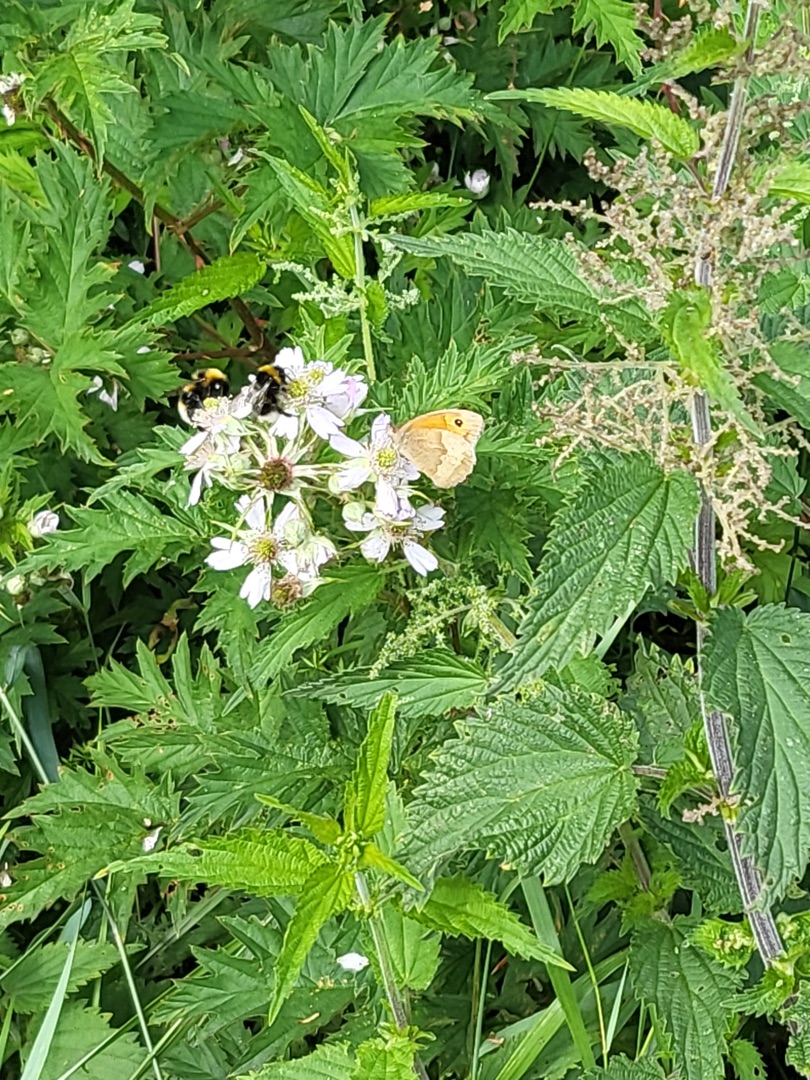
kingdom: Animalia
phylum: Arthropoda
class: Insecta
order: Lepidoptera
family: Nymphalidae
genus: Maniola
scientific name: Maniola jurtina
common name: Græsrandøje
